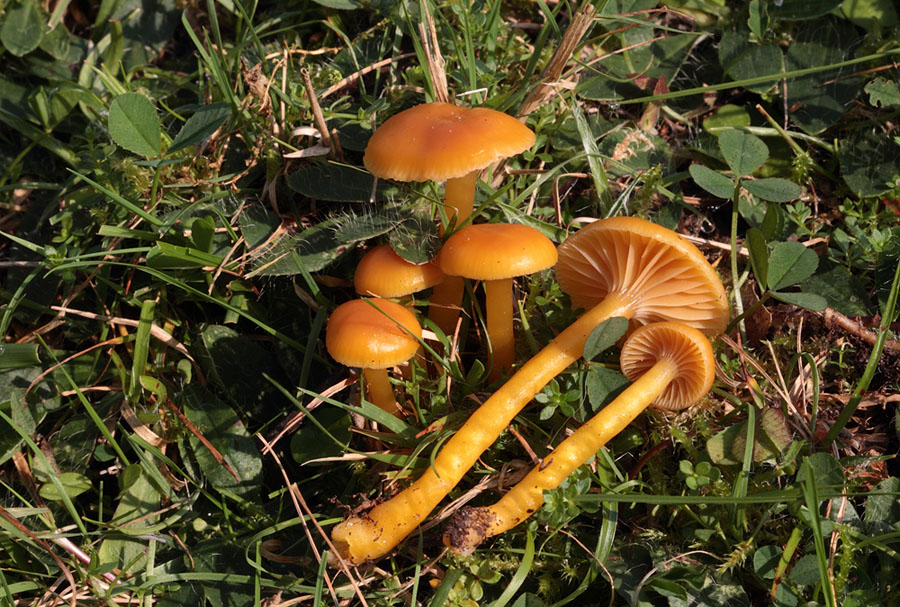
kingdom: Fungi
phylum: Basidiomycota
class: Agaricomycetes
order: Agaricales
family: Hygrophoraceae
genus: Gliophorus
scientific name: Gliophorus laetus
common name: brusk-vokshat
